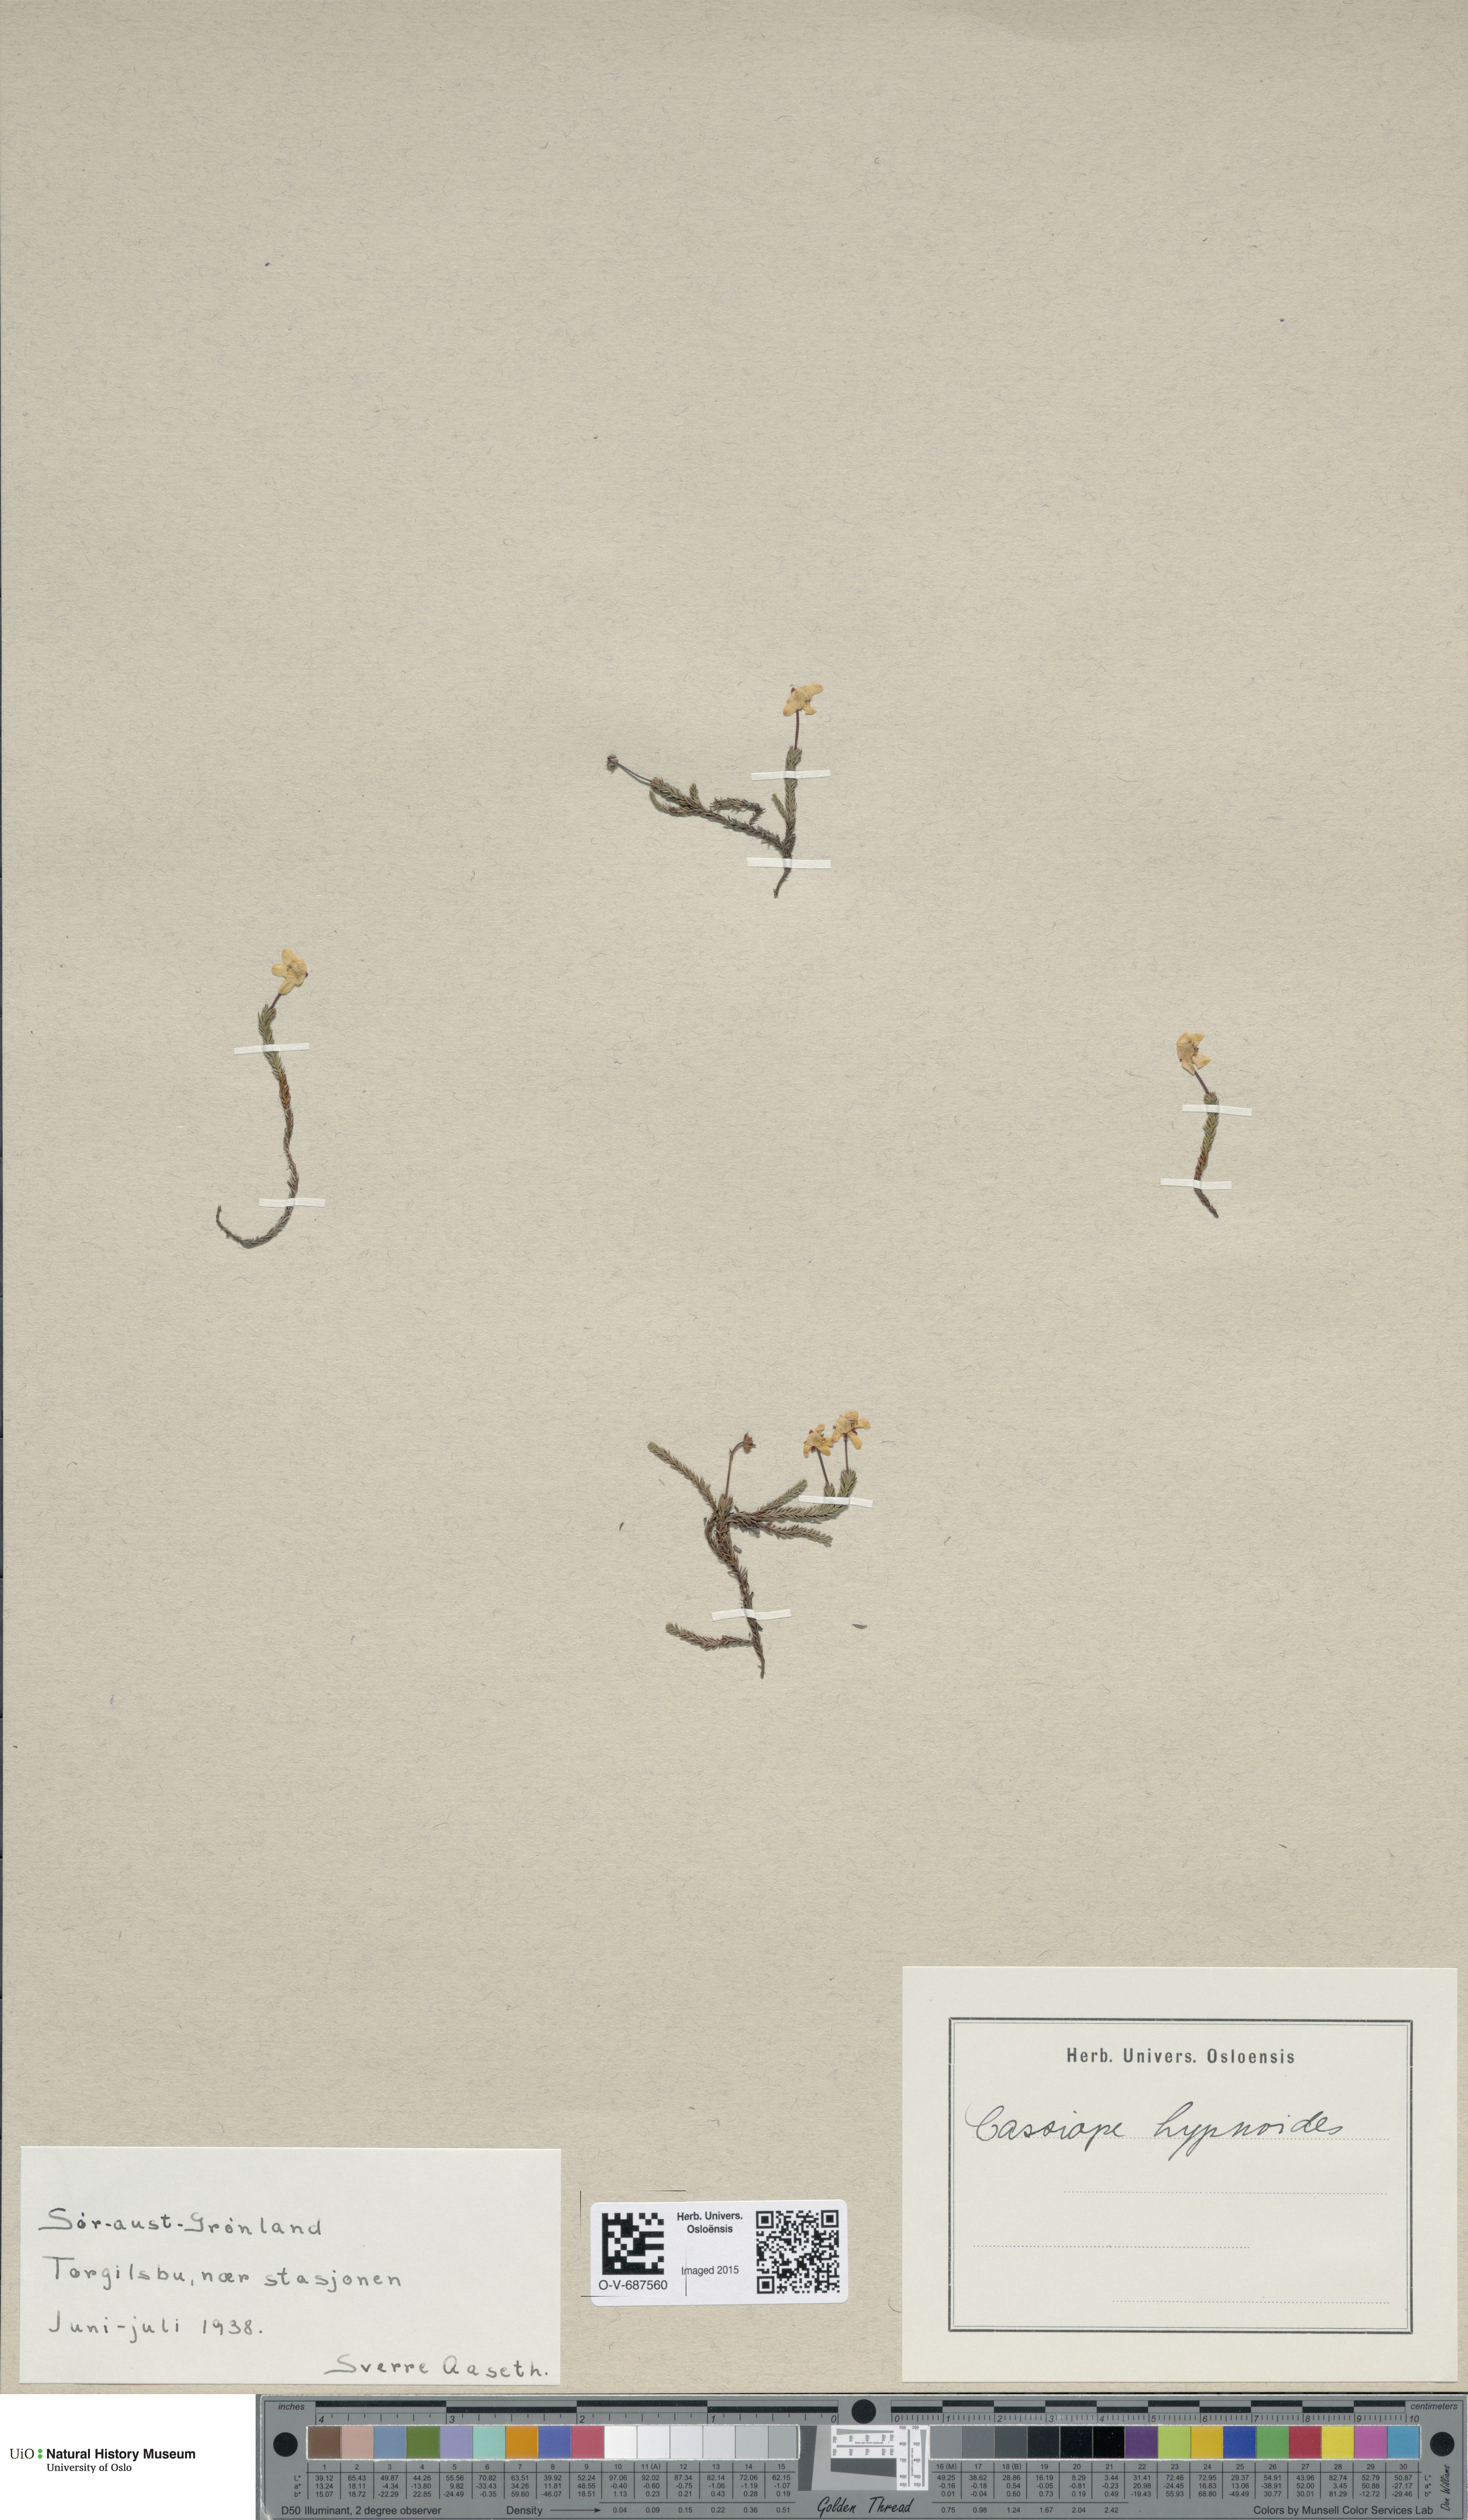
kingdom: Plantae
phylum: Tracheophyta
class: Magnoliopsida
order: Ericales
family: Ericaceae
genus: Harrimanella
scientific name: Harrimanella hypnoides
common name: Moss bell heather
